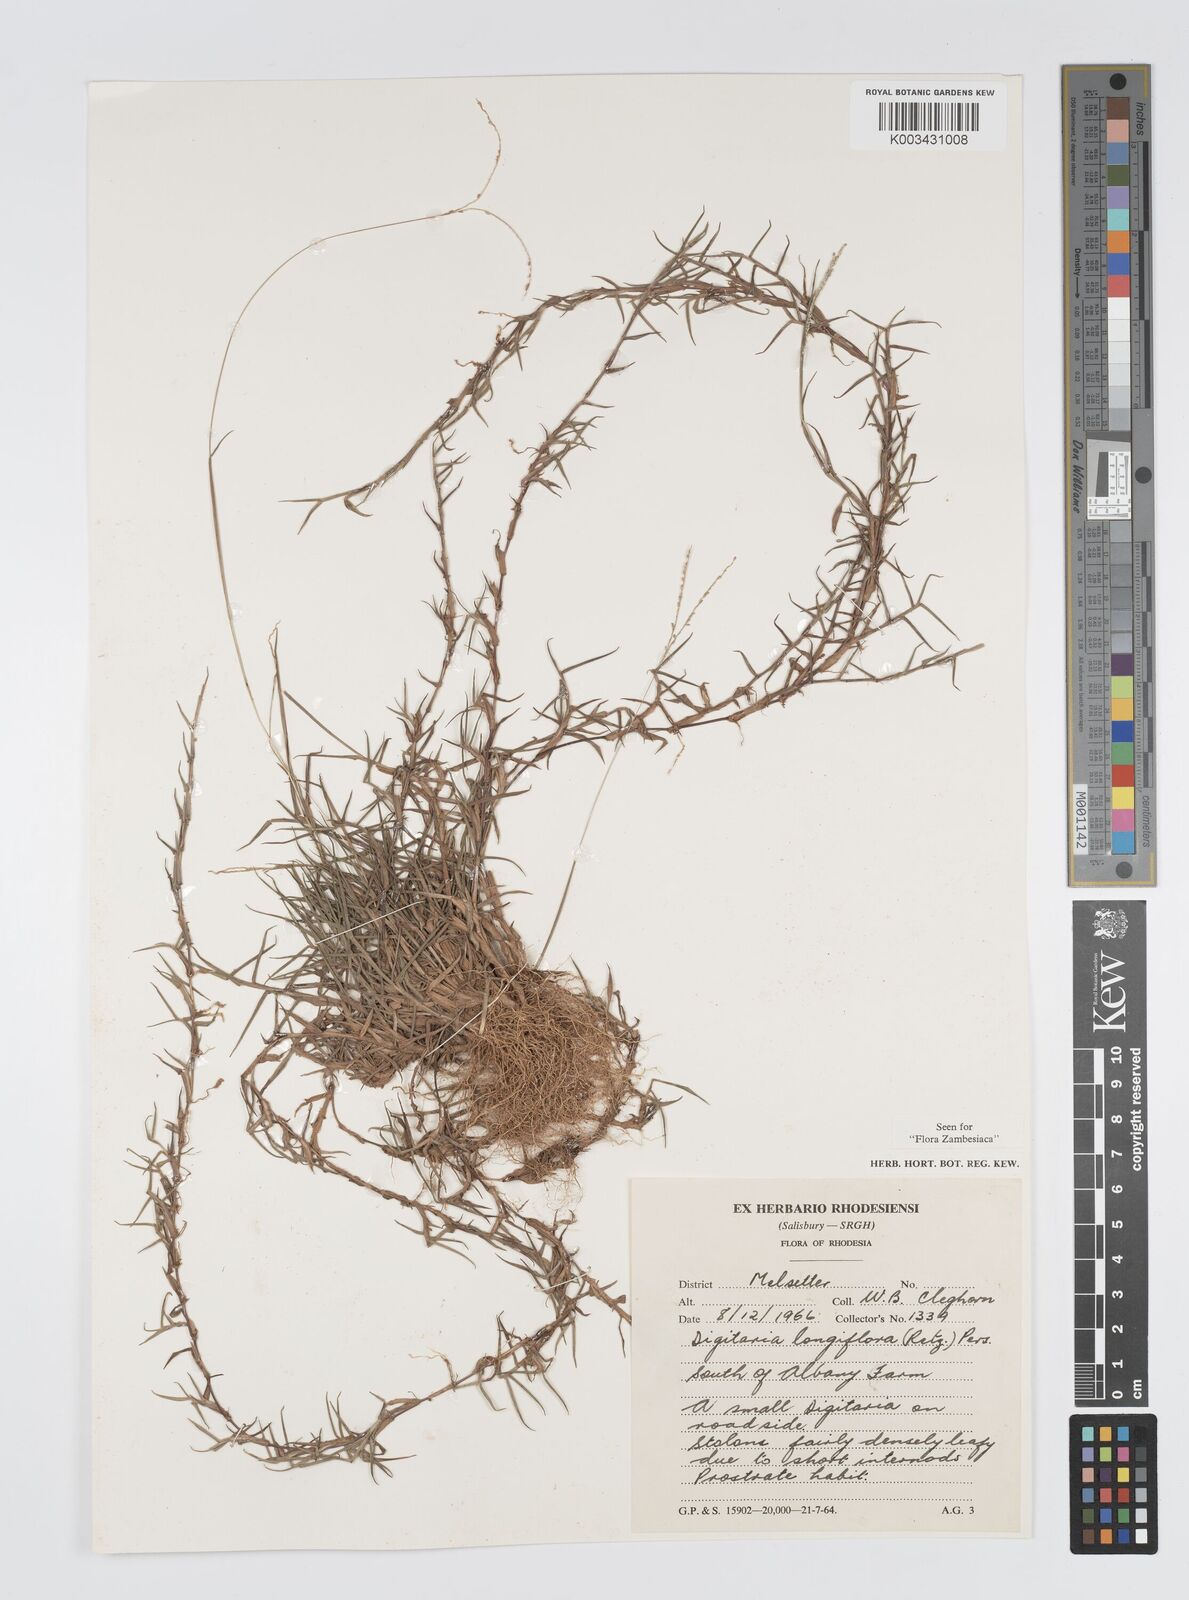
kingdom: Plantae
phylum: Tracheophyta
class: Liliopsida
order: Poales
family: Poaceae
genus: Digitaria
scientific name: Digitaria longiflora
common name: Wire crabgrass
